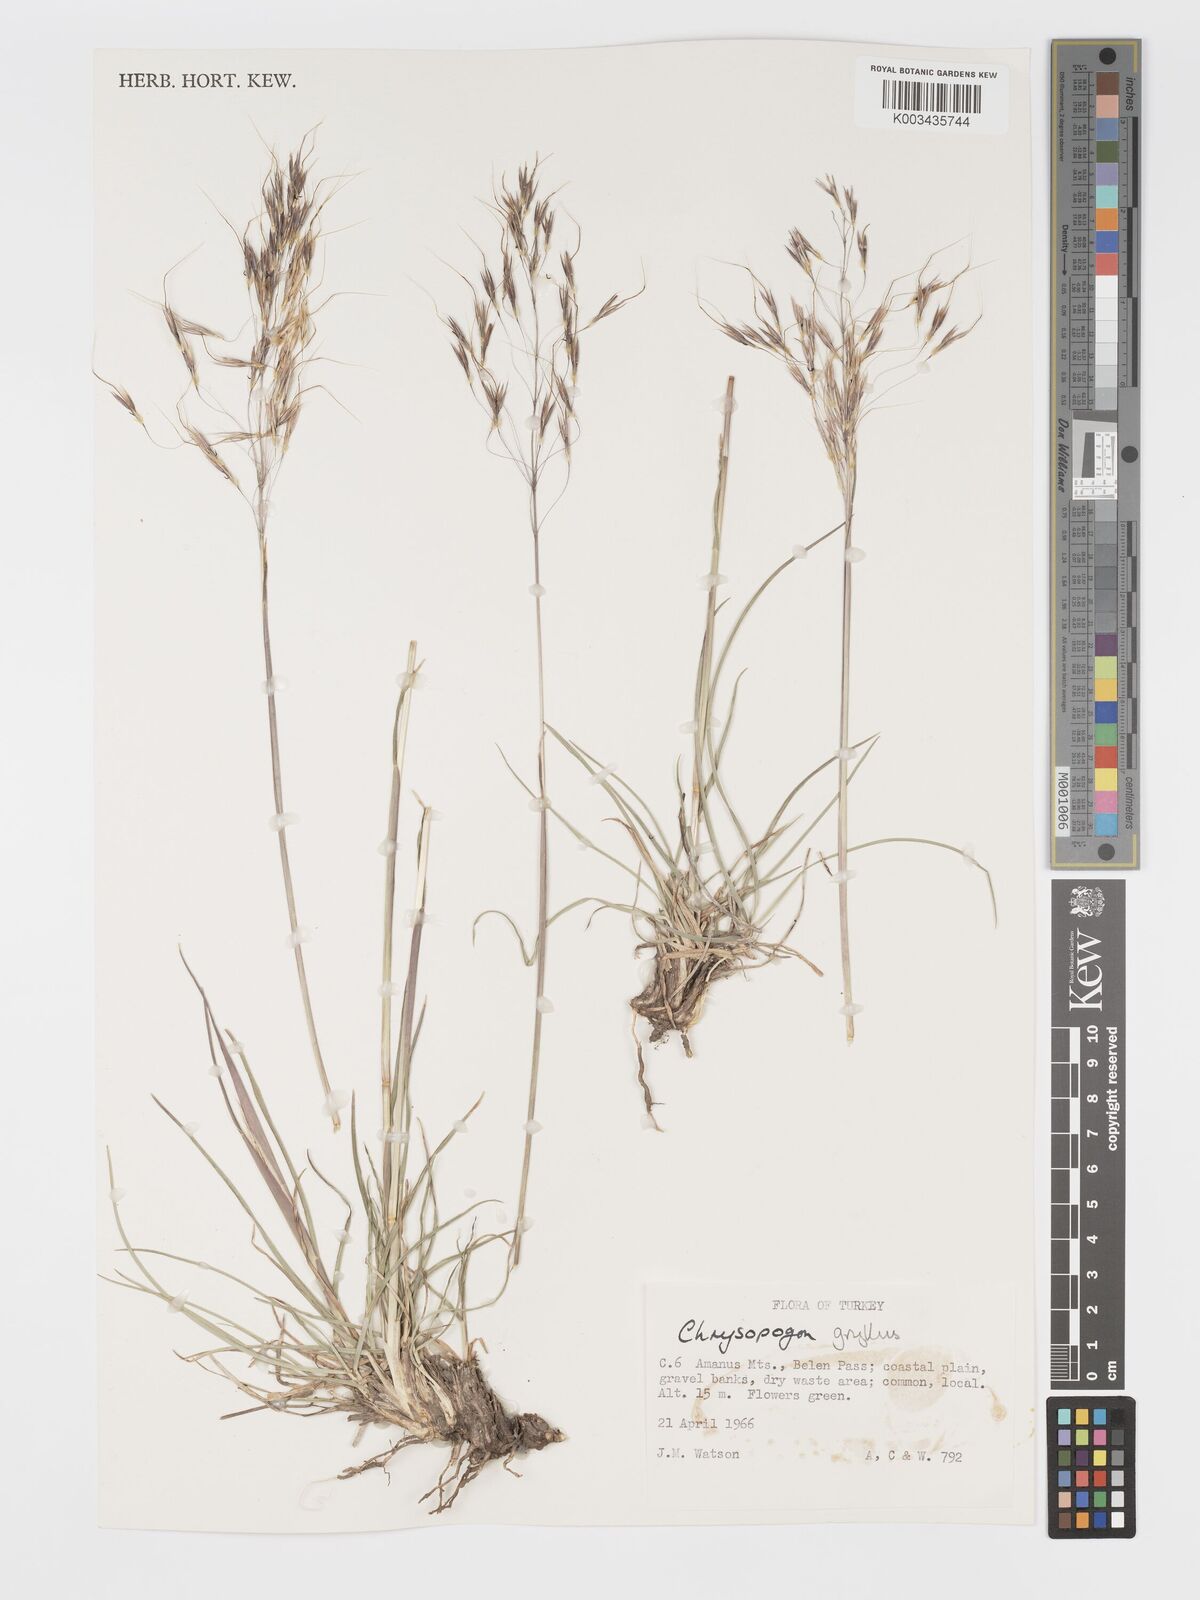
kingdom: Plantae
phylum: Tracheophyta
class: Liliopsida
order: Poales
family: Poaceae
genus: Chrysopogon
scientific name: Chrysopogon gryllus
